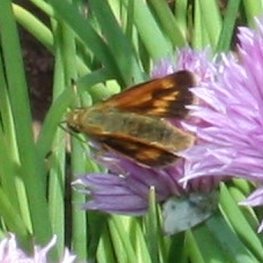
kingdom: Animalia
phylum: Arthropoda
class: Insecta
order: Lepidoptera
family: Hesperiidae
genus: Polites
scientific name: Polites
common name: Long Dash Skipper
